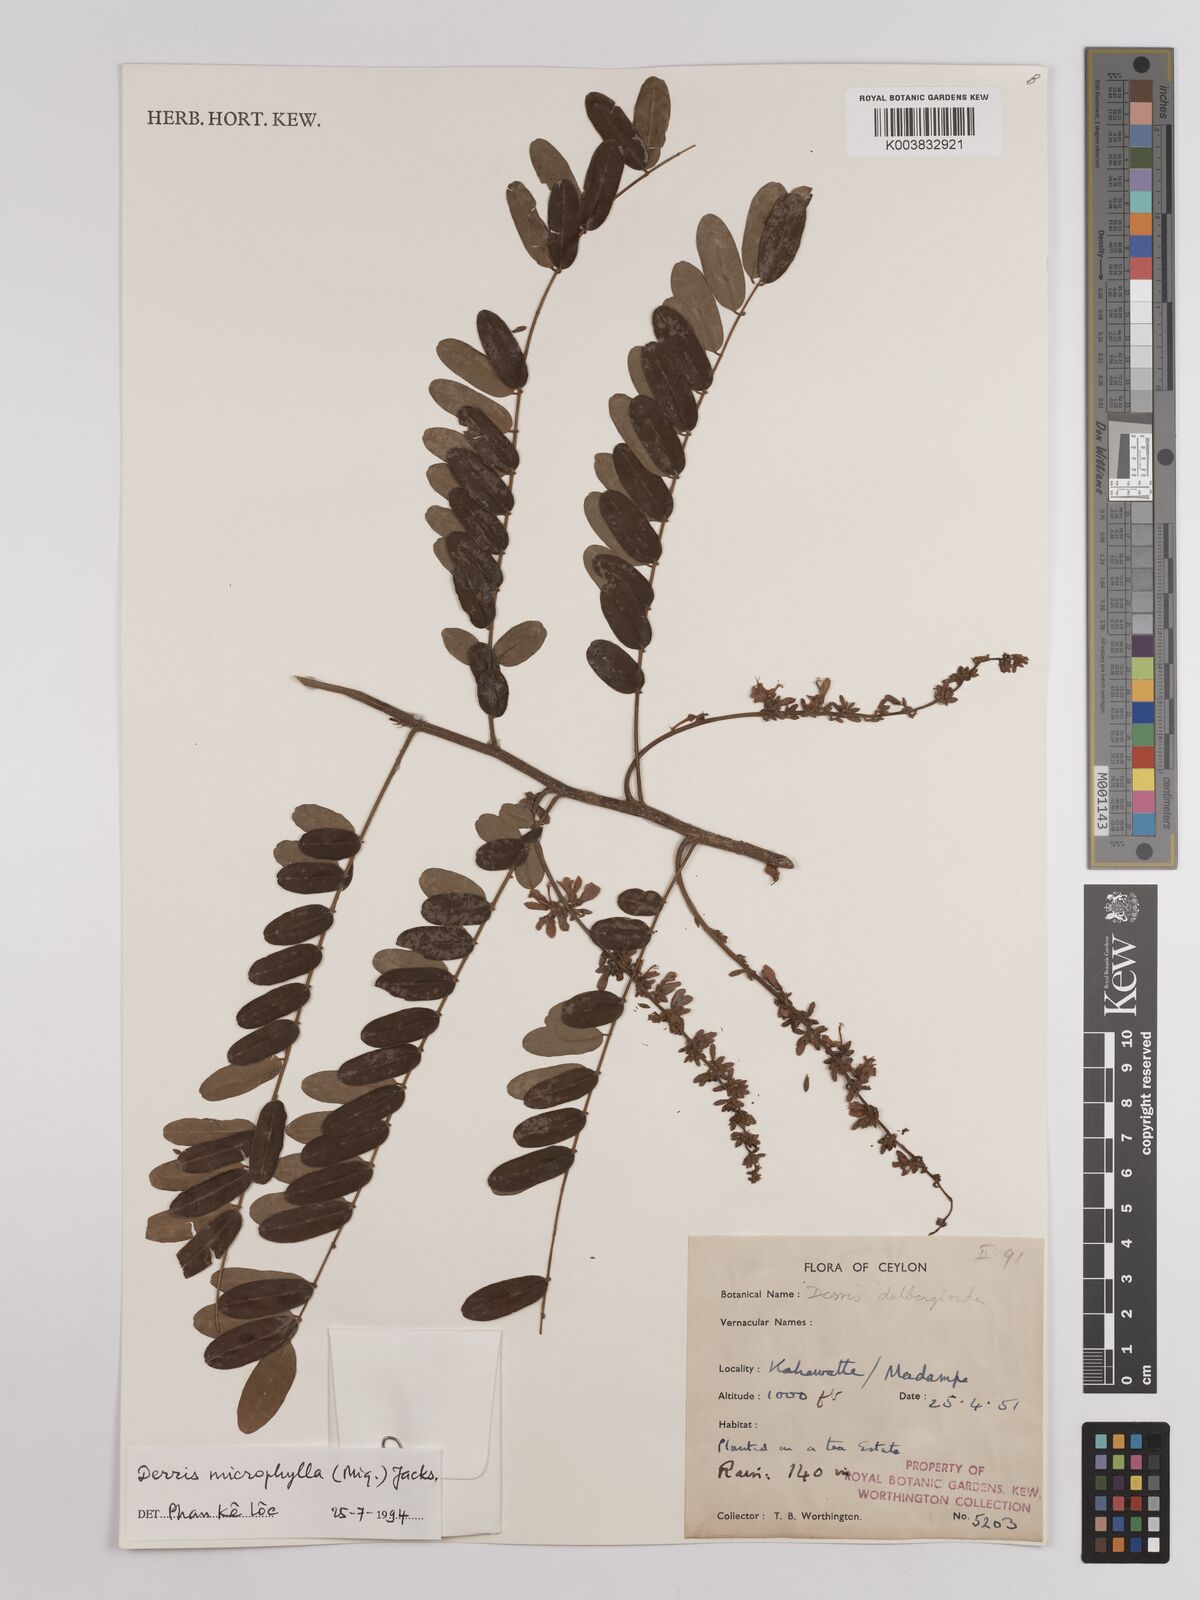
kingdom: Plantae
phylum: Tracheophyta
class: Magnoliopsida
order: Fabales
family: Fabaceae
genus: Brachypterum
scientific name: Brachypterum microphyllum
